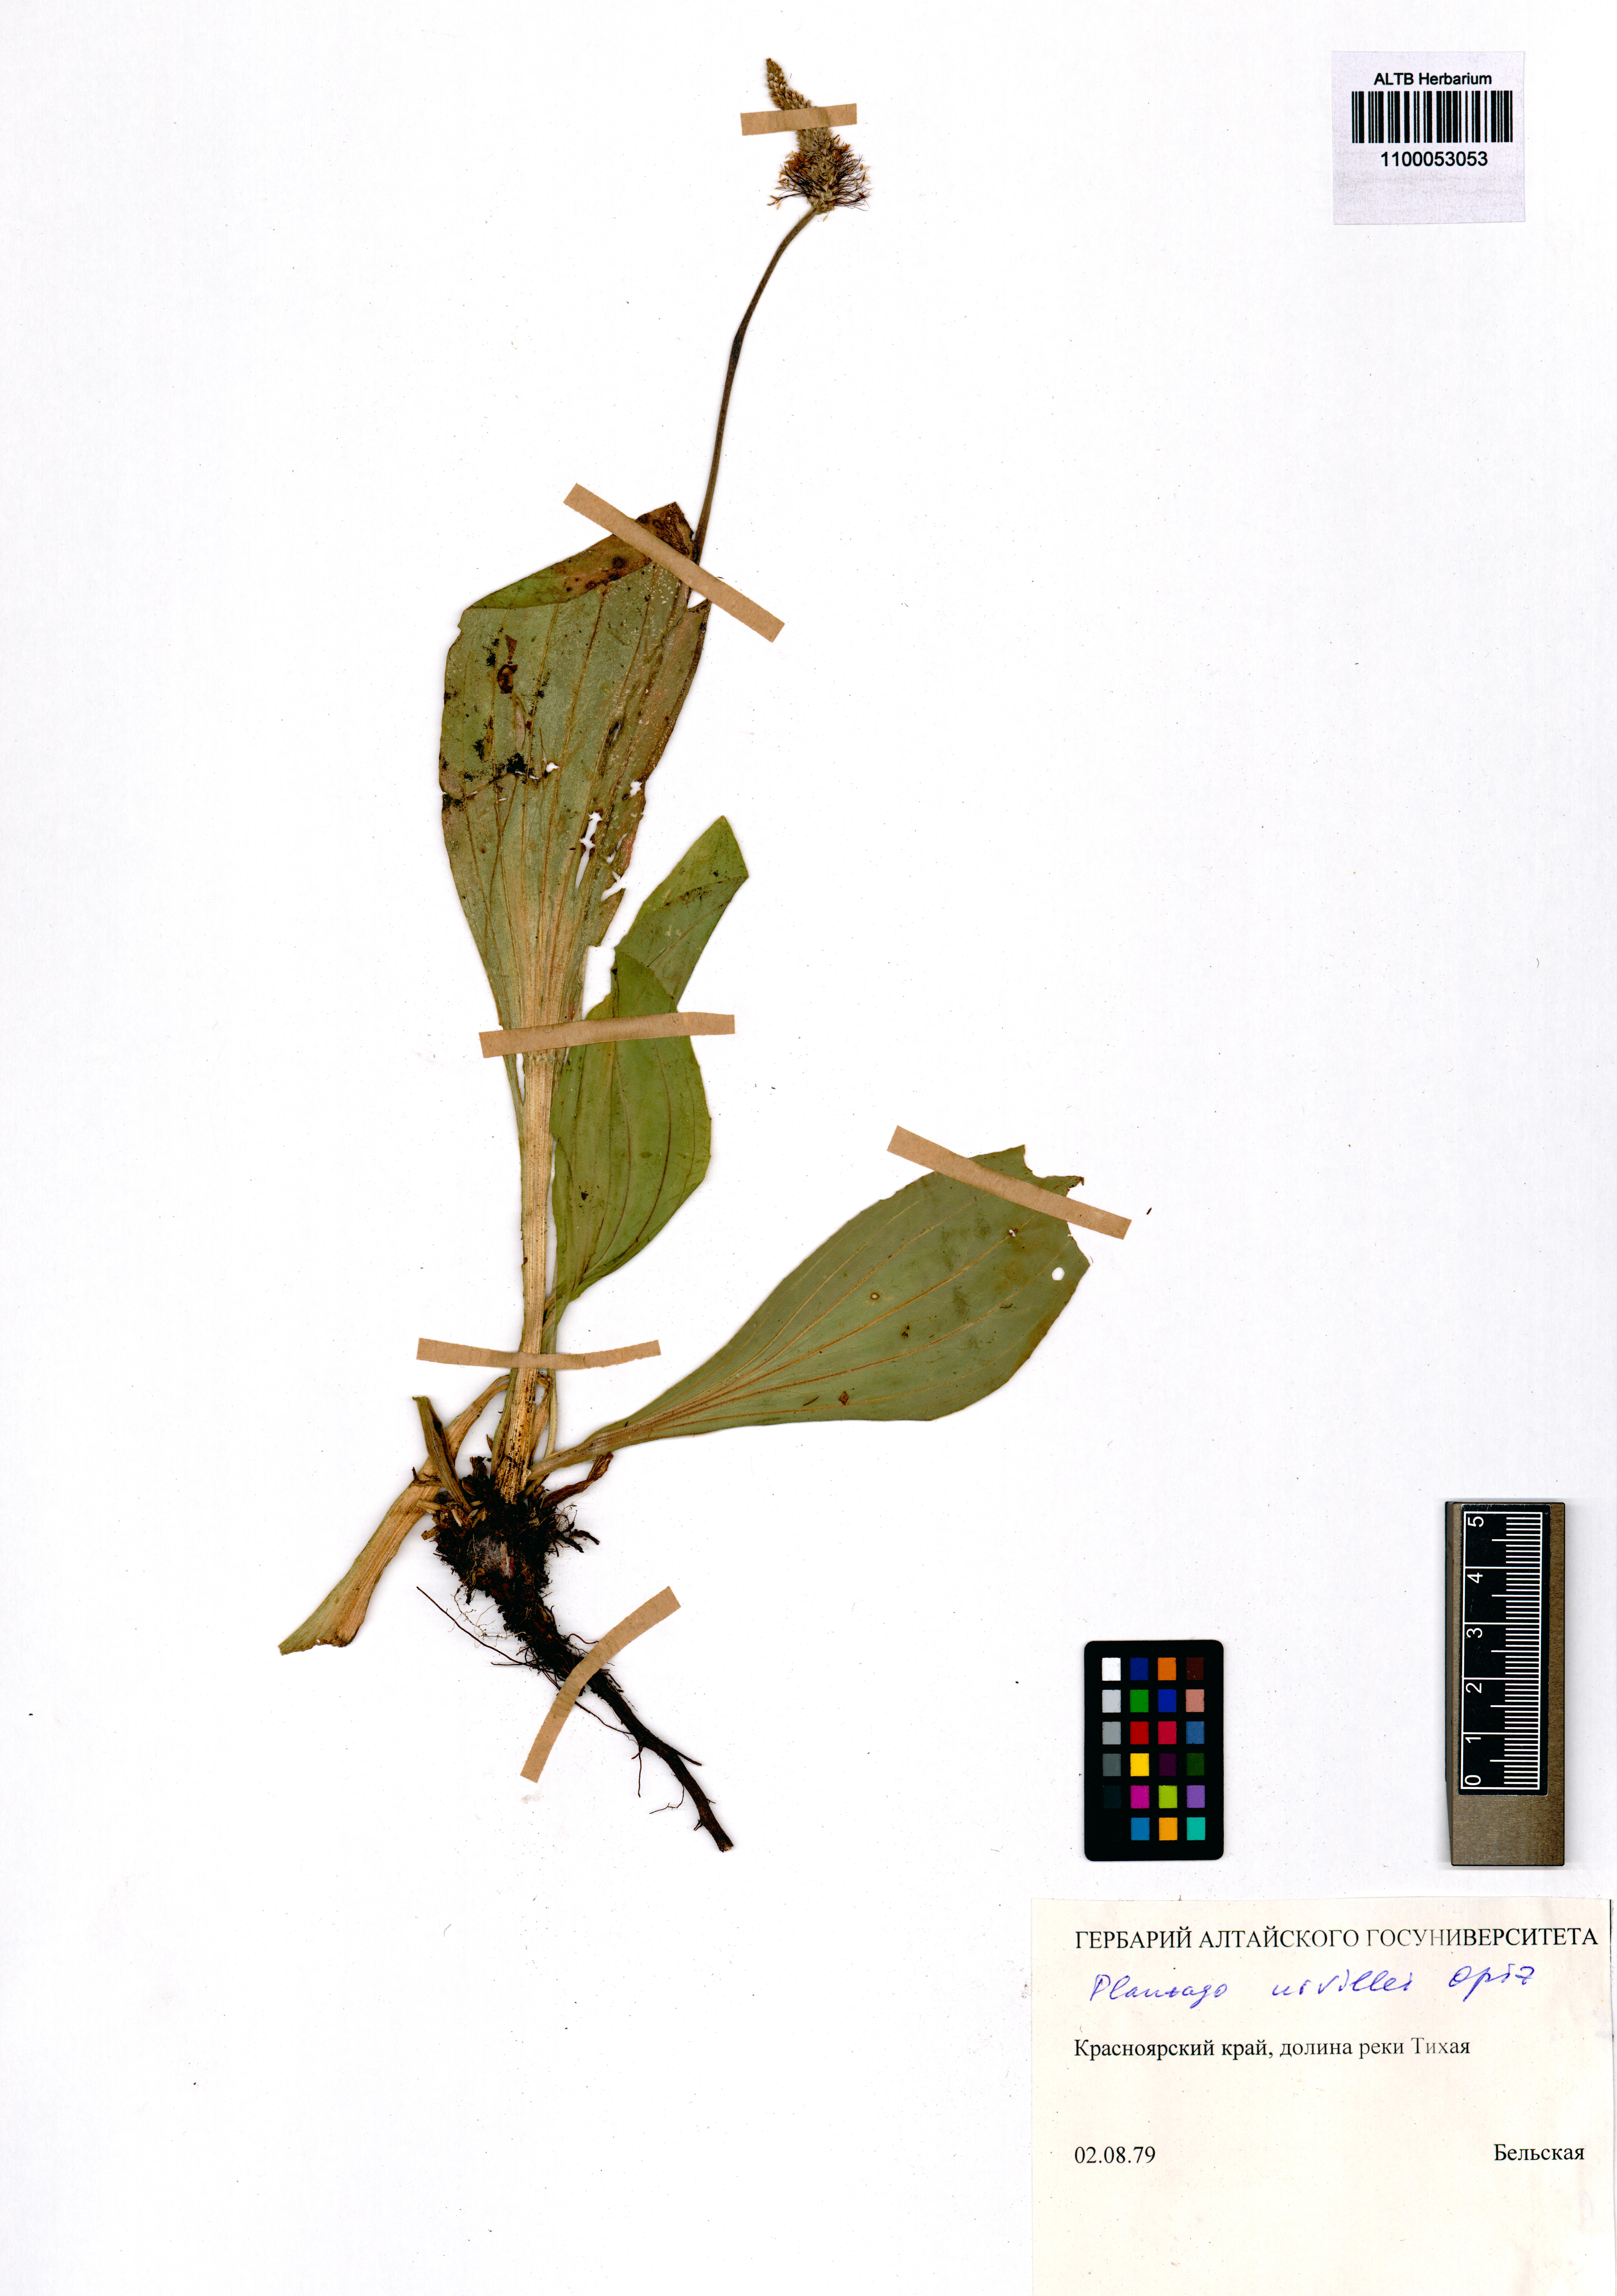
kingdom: Plantae
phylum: Tracheophyta
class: Magnoliopsida
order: Lamiales
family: Plantaginaceae
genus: Plantago
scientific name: Plantago urvillei
